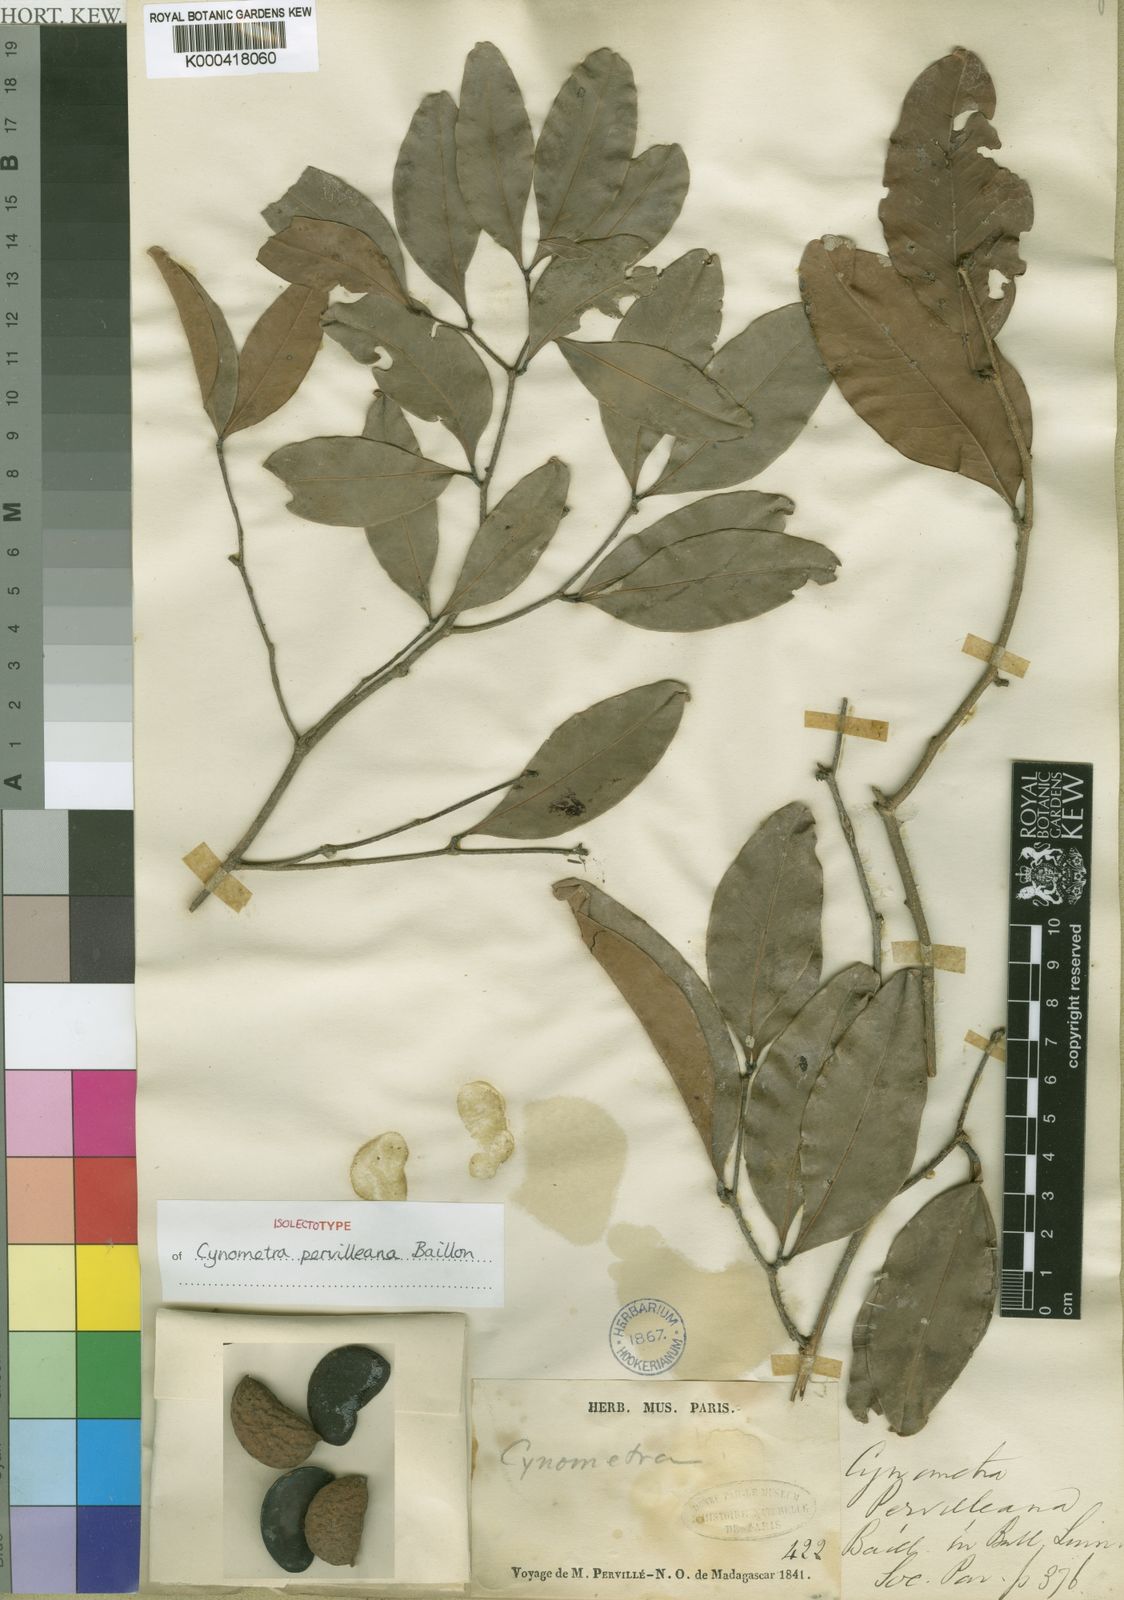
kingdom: Plantae
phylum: Tracheophyta
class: Magnoliopsida
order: Fabales
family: Fabaceae
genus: Cynometra
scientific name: Cynometra pervilleana
